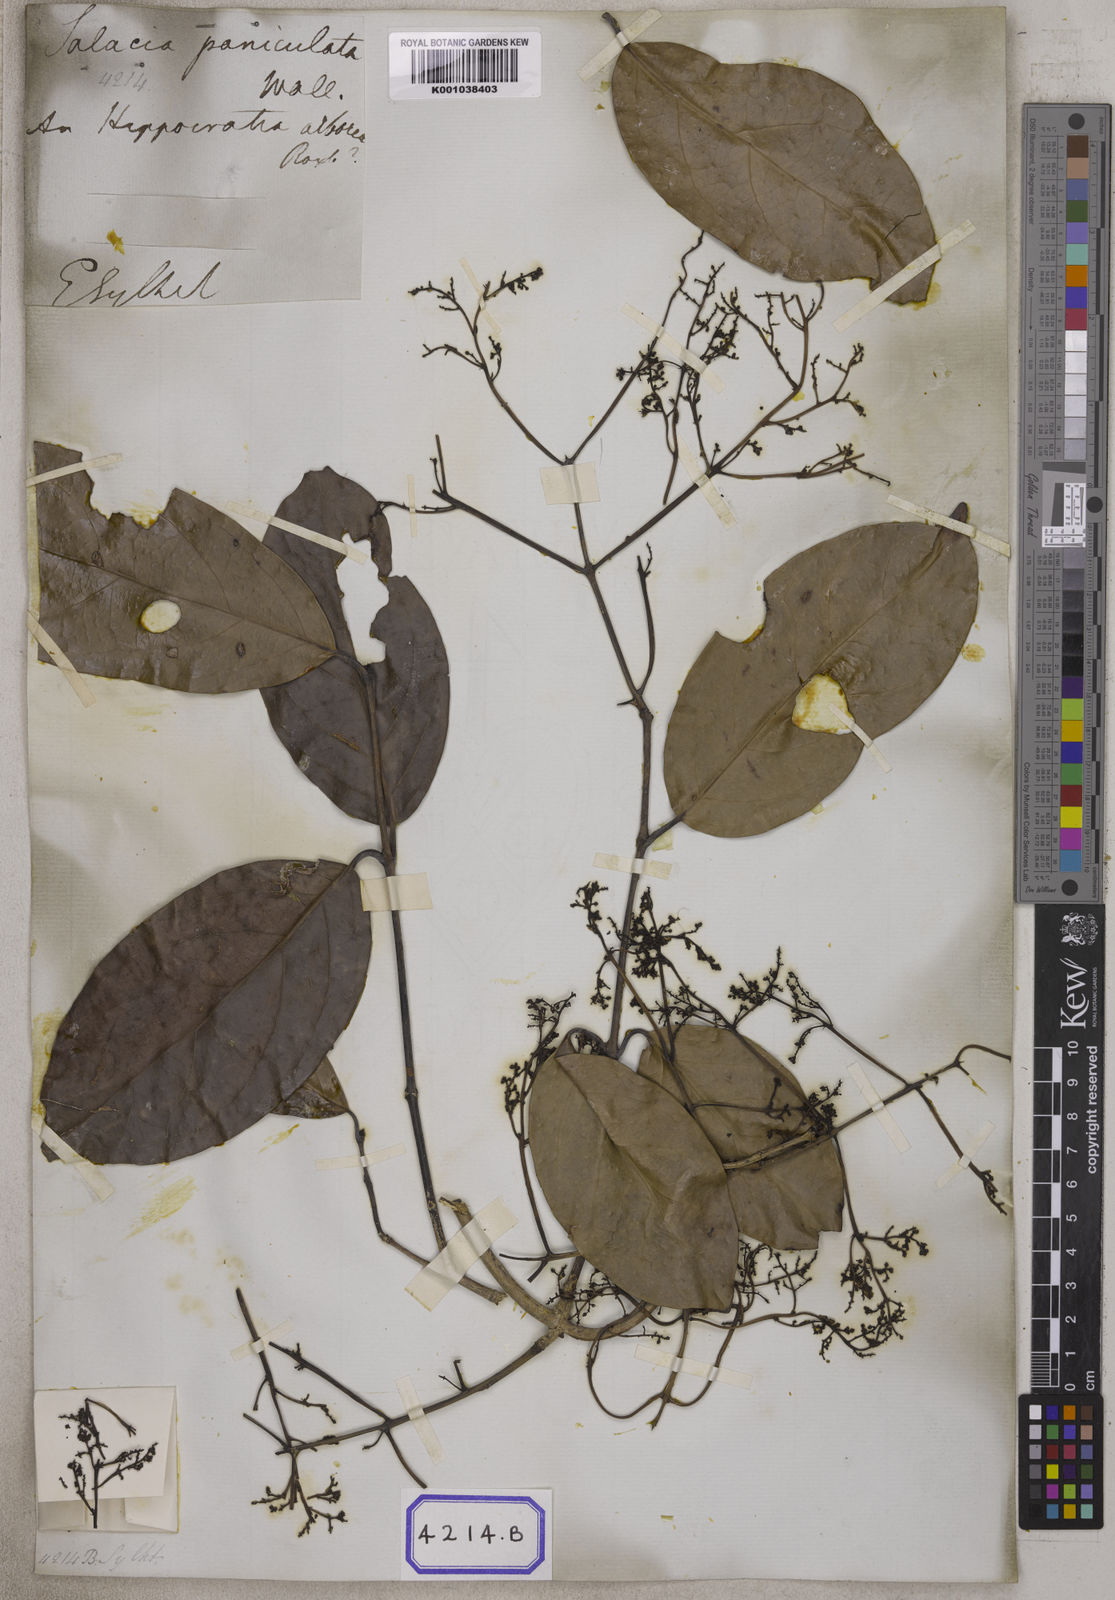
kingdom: Plantae
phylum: Tracheophyta
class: Magnoliopsida
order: Celastrales
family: Celastraceae
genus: Arnicratea
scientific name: Arnicratea grahamii
